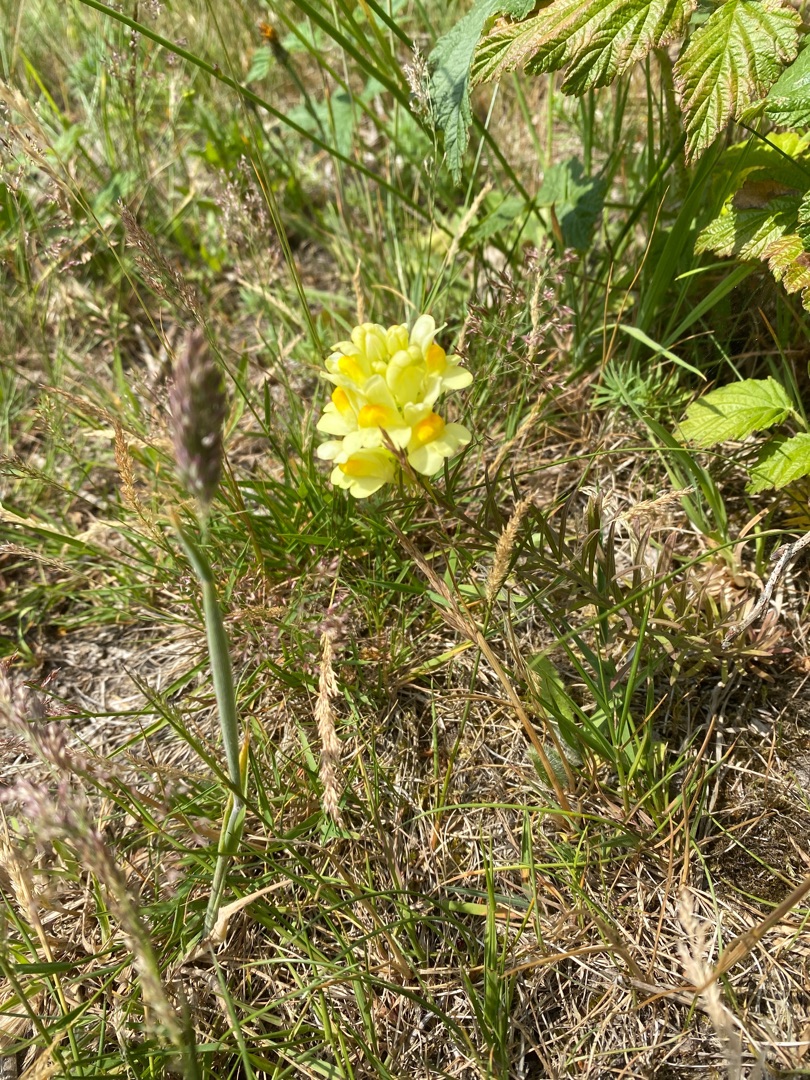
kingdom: Plantae
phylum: Tracheophyta
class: Magnoliopsida
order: Lamiales
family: Plantaginaceae
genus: Linaria
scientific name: Linaria vulgaris
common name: Almindelig torskemund
